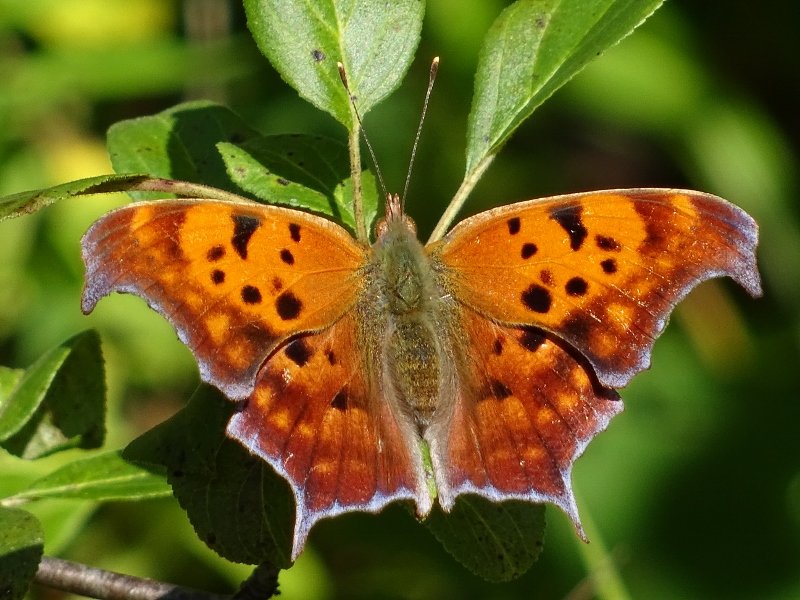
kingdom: Animalia
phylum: Arthropoda
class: Insecta
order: Lepidoptera
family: Nymphalidae
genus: Polygonia
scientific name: Polygonia interrogationis
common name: Question Mark
